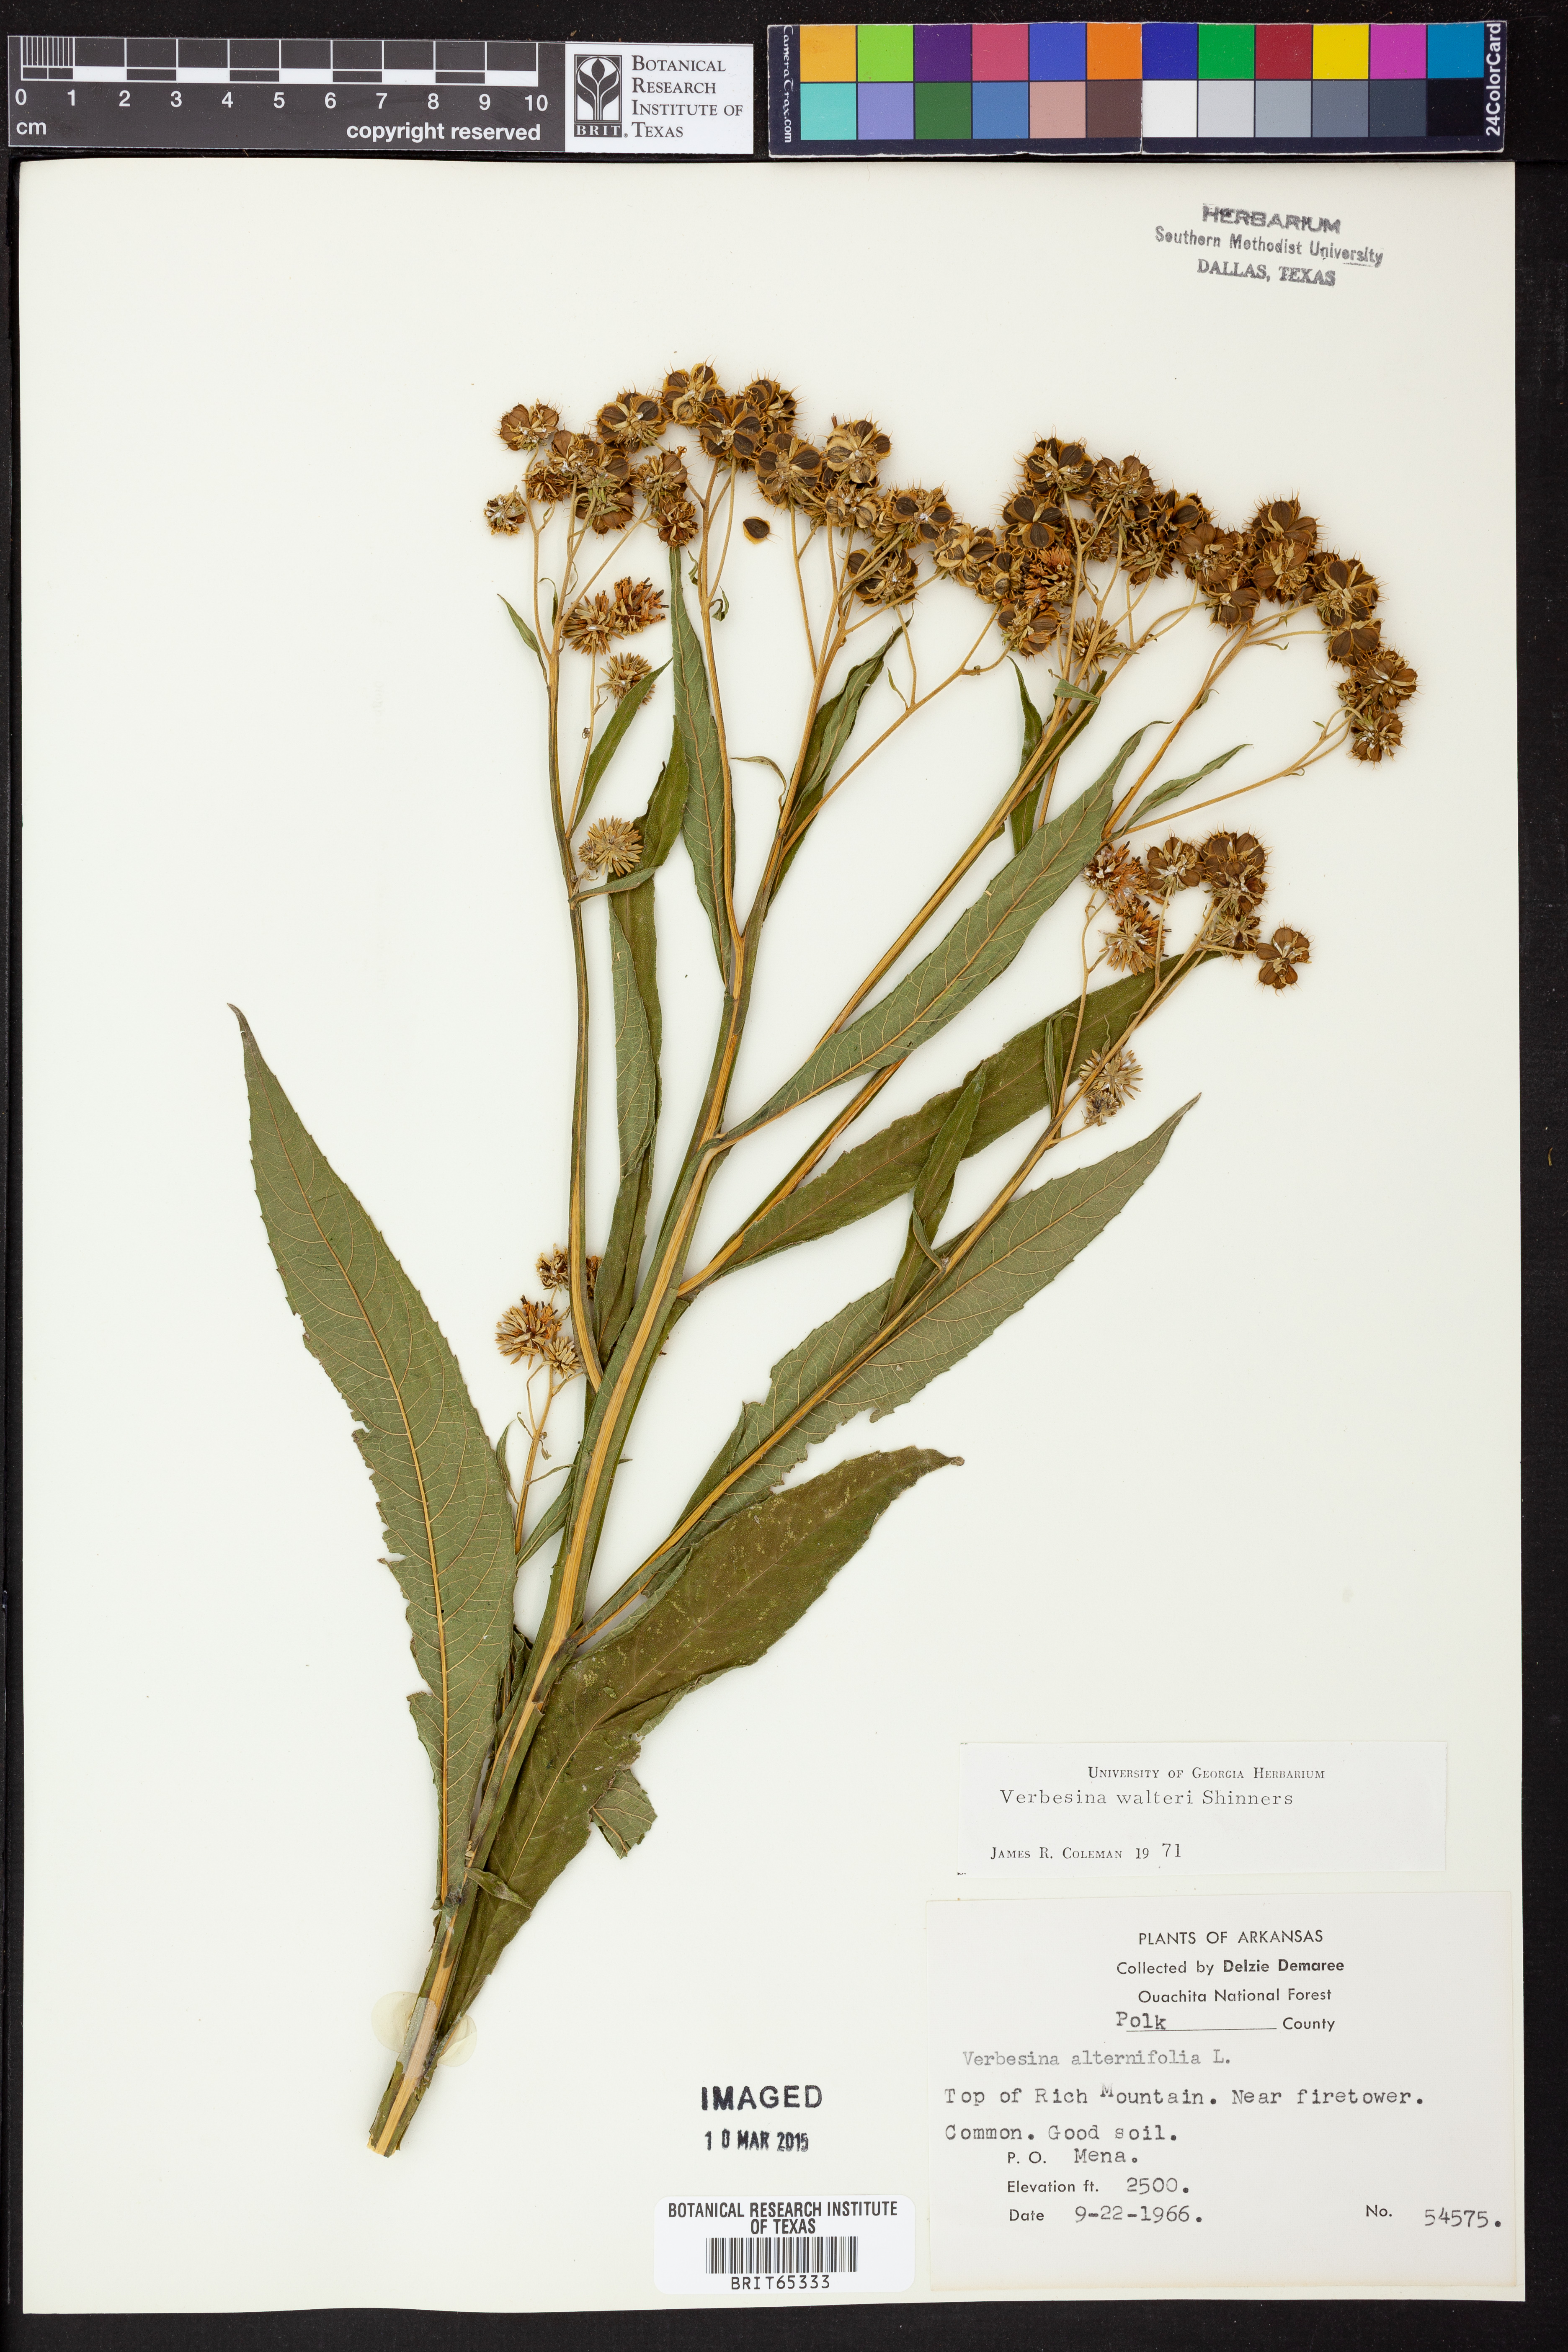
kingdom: Plantae
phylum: Tracheophyta
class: Magnoliopsida
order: Asterales
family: Asteraceae
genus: Verbesina
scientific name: Verbesina
